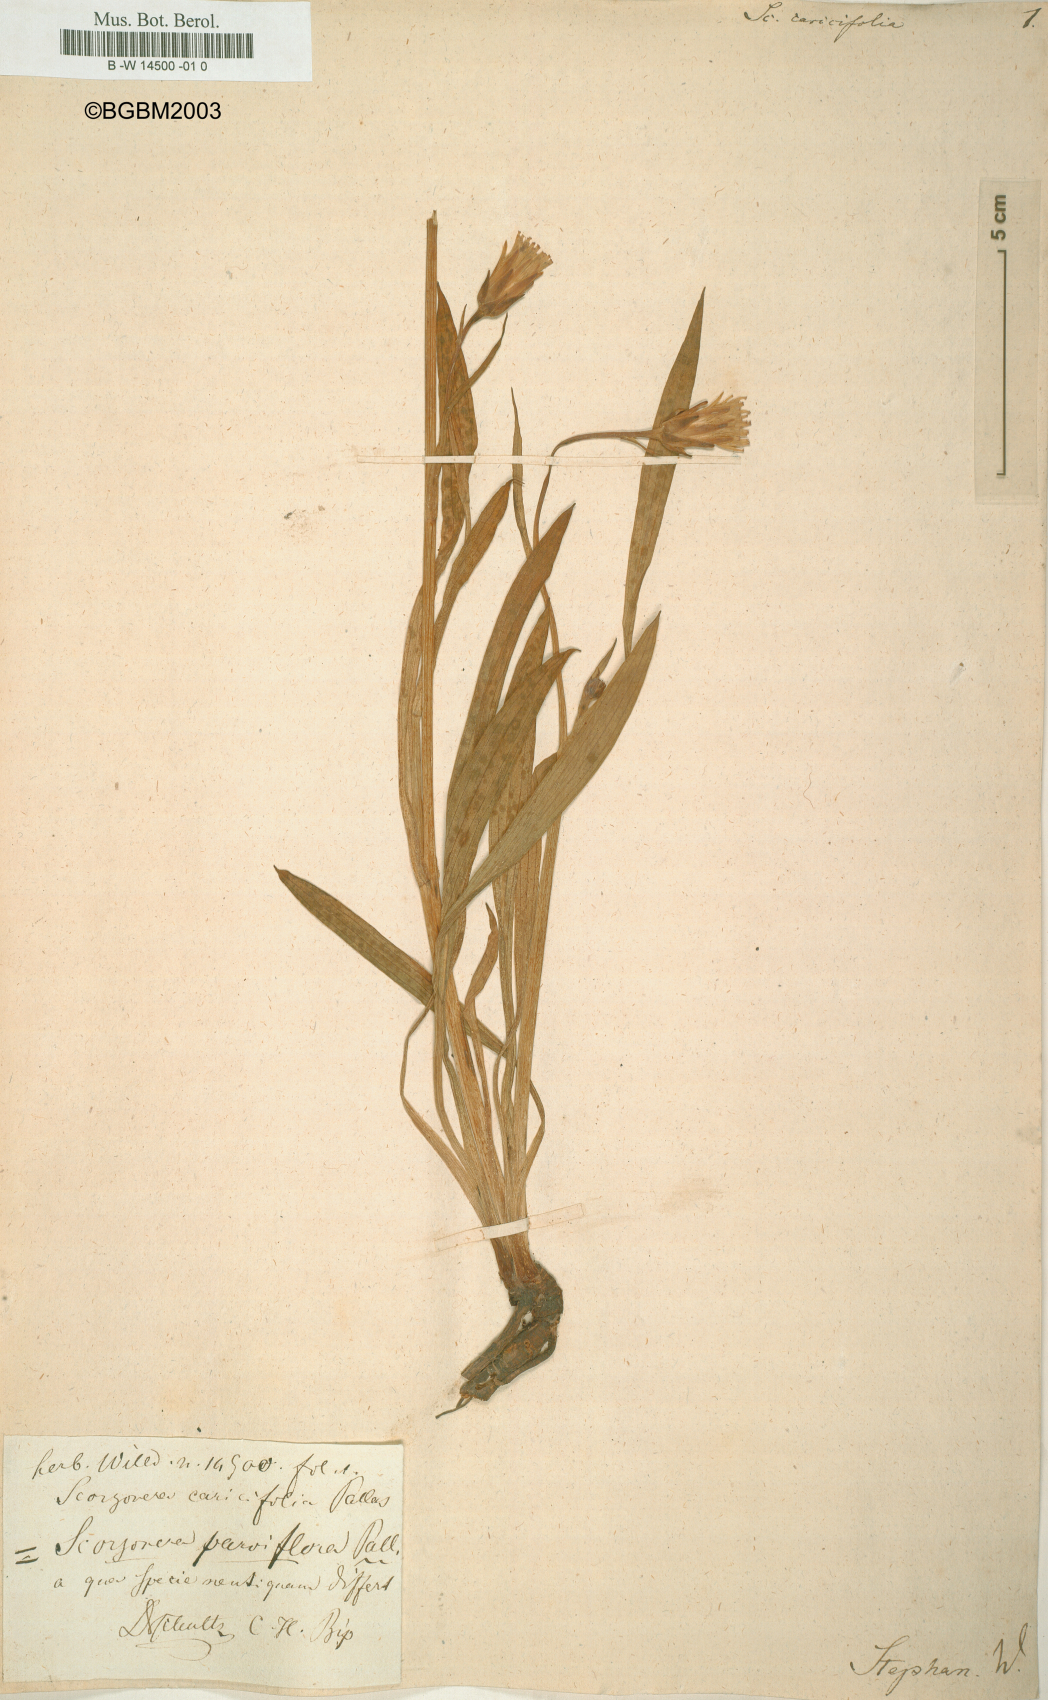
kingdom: Plantae
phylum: Tracheophyta
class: Magnoliopsida
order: Asterales
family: Asteraceae
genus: Scorzonera
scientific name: Scorzonera parviflora
